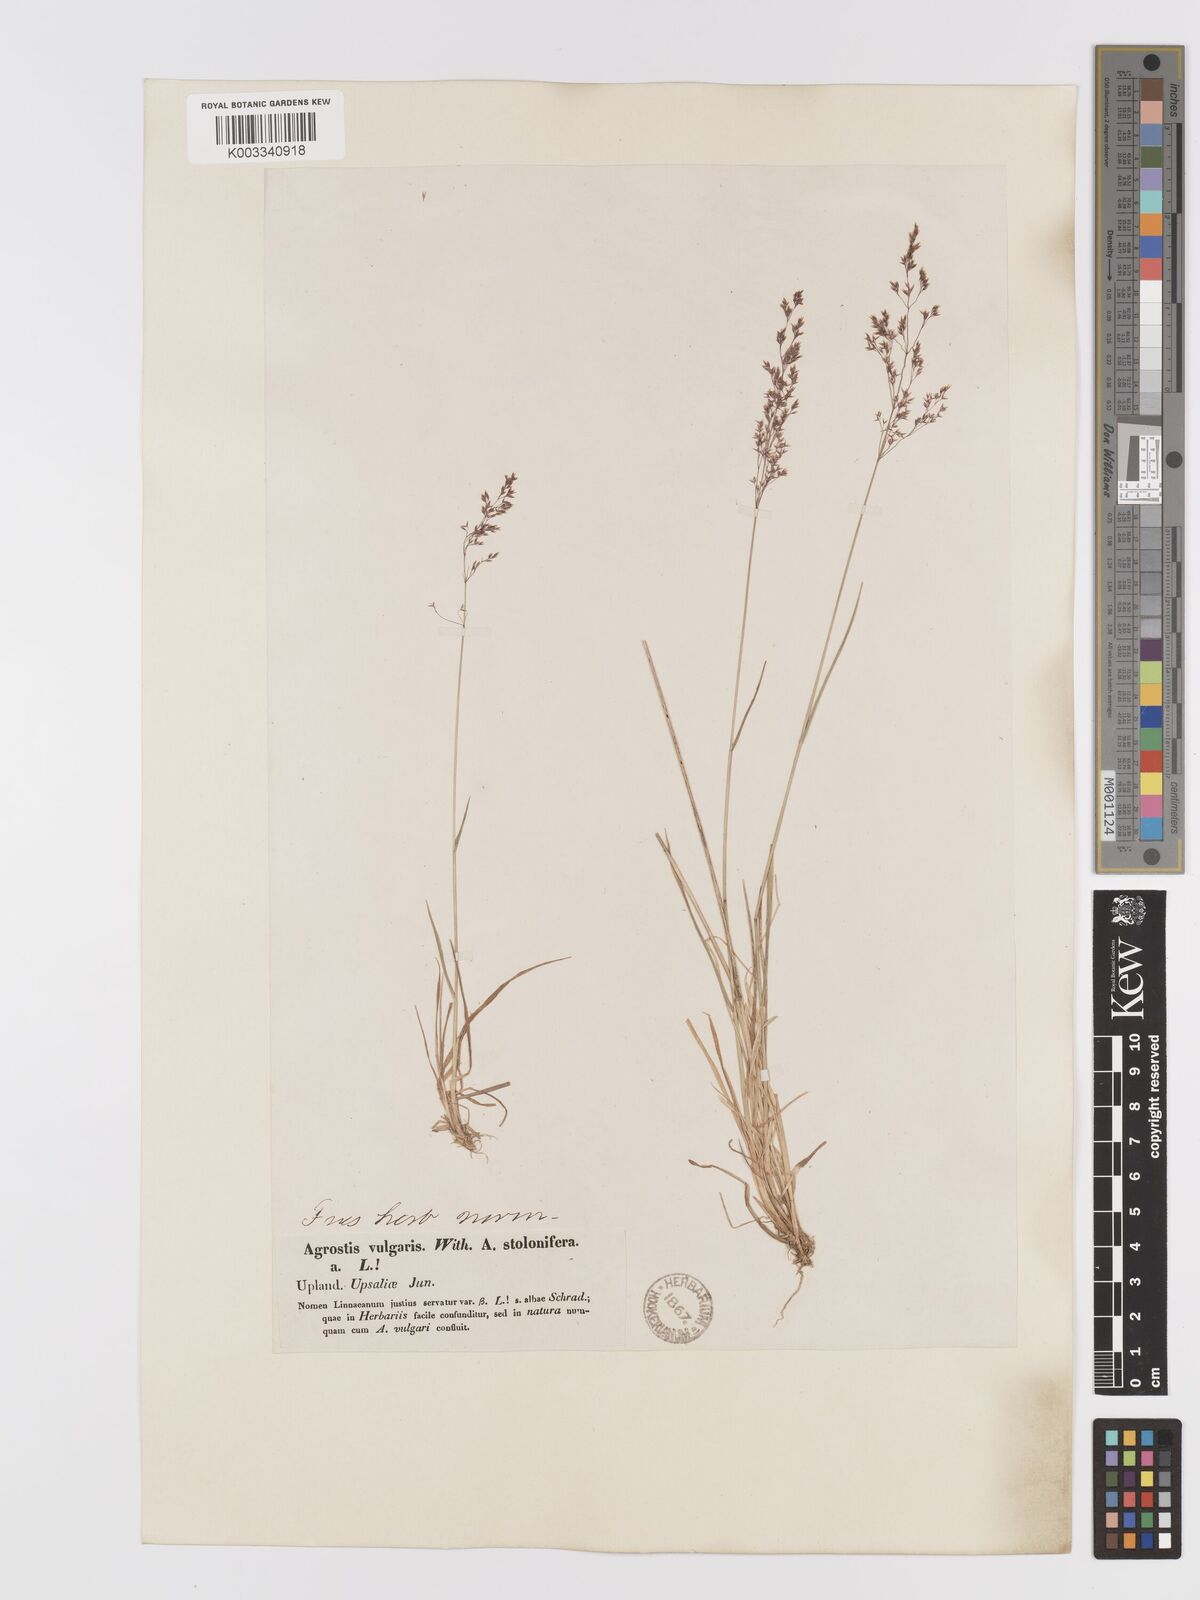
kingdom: Plantae
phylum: Tracheophyta
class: Liliopsida
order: Poales
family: Poaceae
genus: Agrostis
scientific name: Agrostis capillaris
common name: Colonial bentgrass
